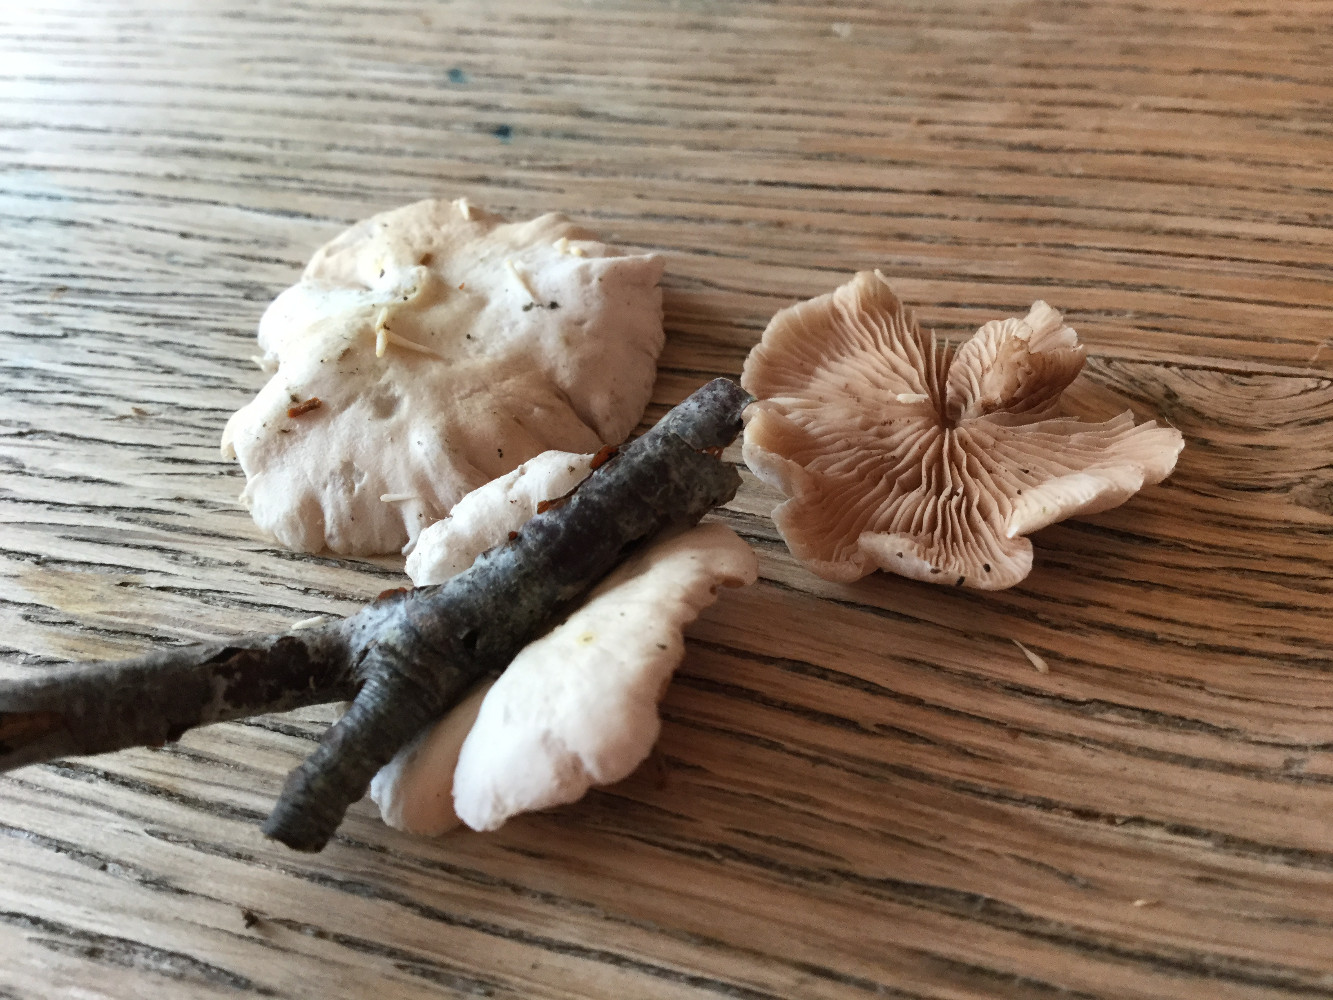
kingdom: Fungi
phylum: Basidiomycota
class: Agaricomycetes
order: Agaricales
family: Crepidotaceae
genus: Crepidotus
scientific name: Crepidotus variabilis
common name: forskelligformet muslingesvamp
